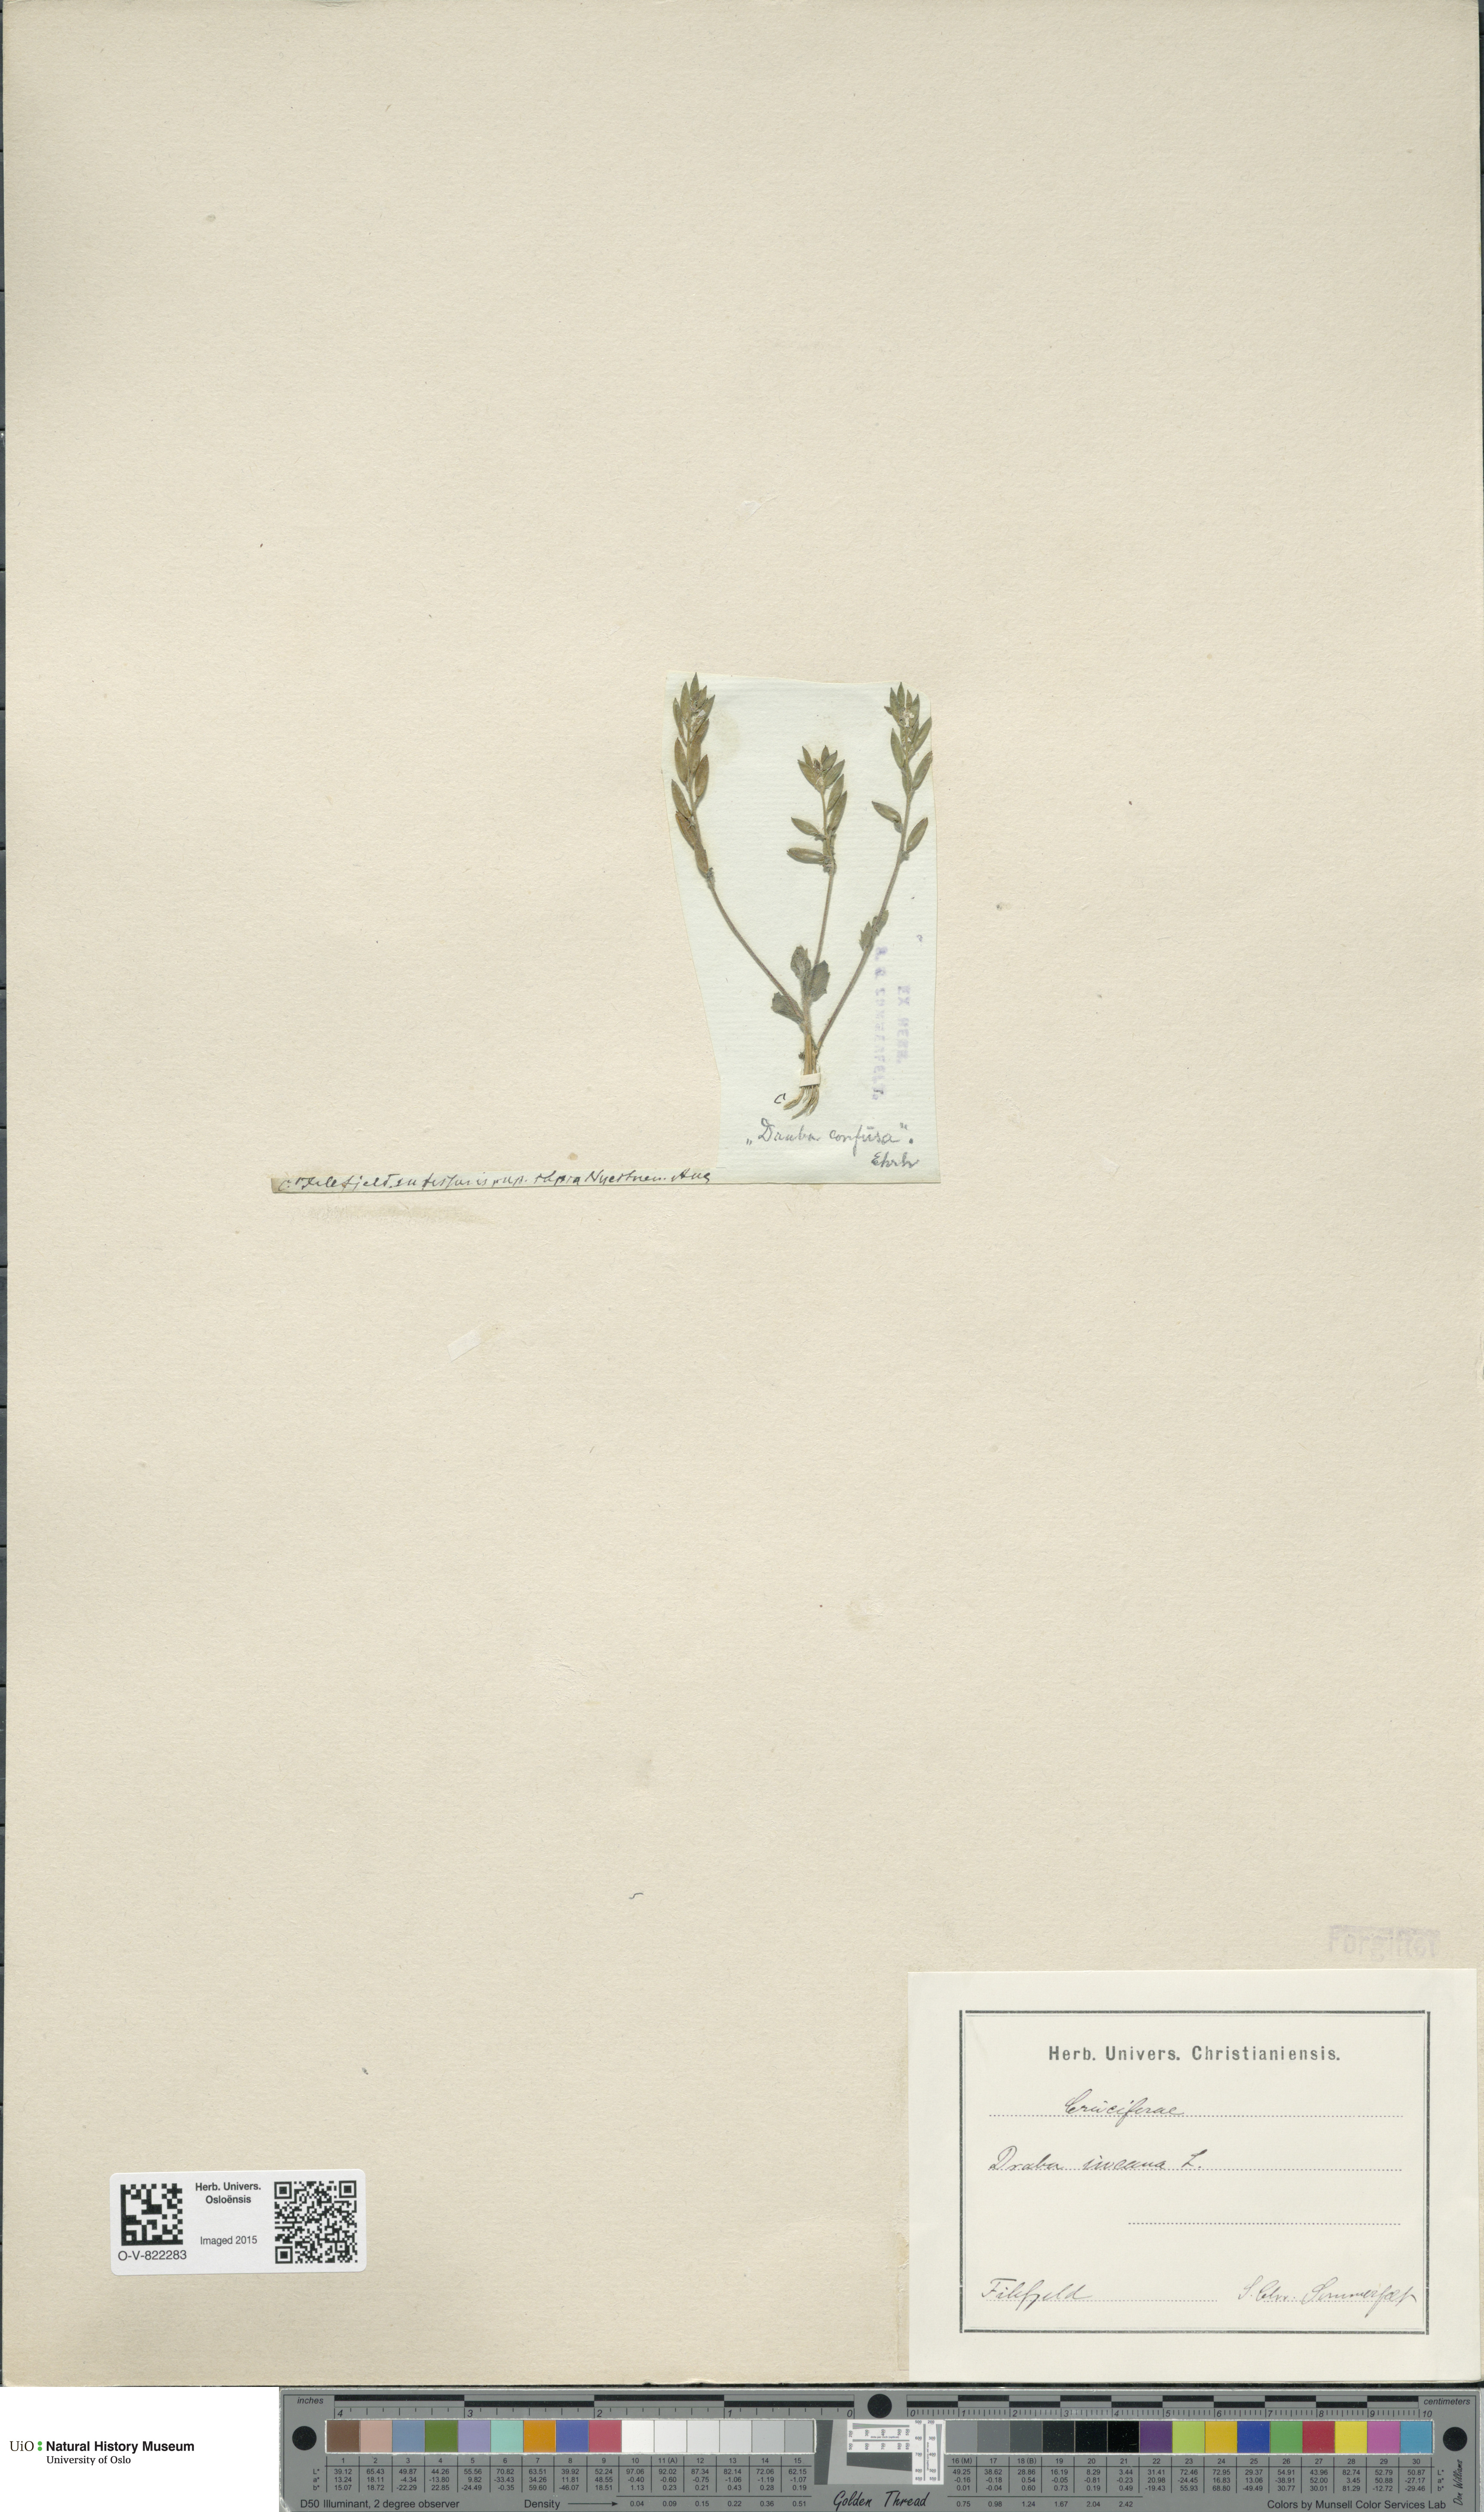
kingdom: Plantae
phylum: Tracheophyta
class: Magnoliopsida
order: Brassicales
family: Brassicaceae
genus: Draba
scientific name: Draba incana
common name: Hoary whitlow-grass
